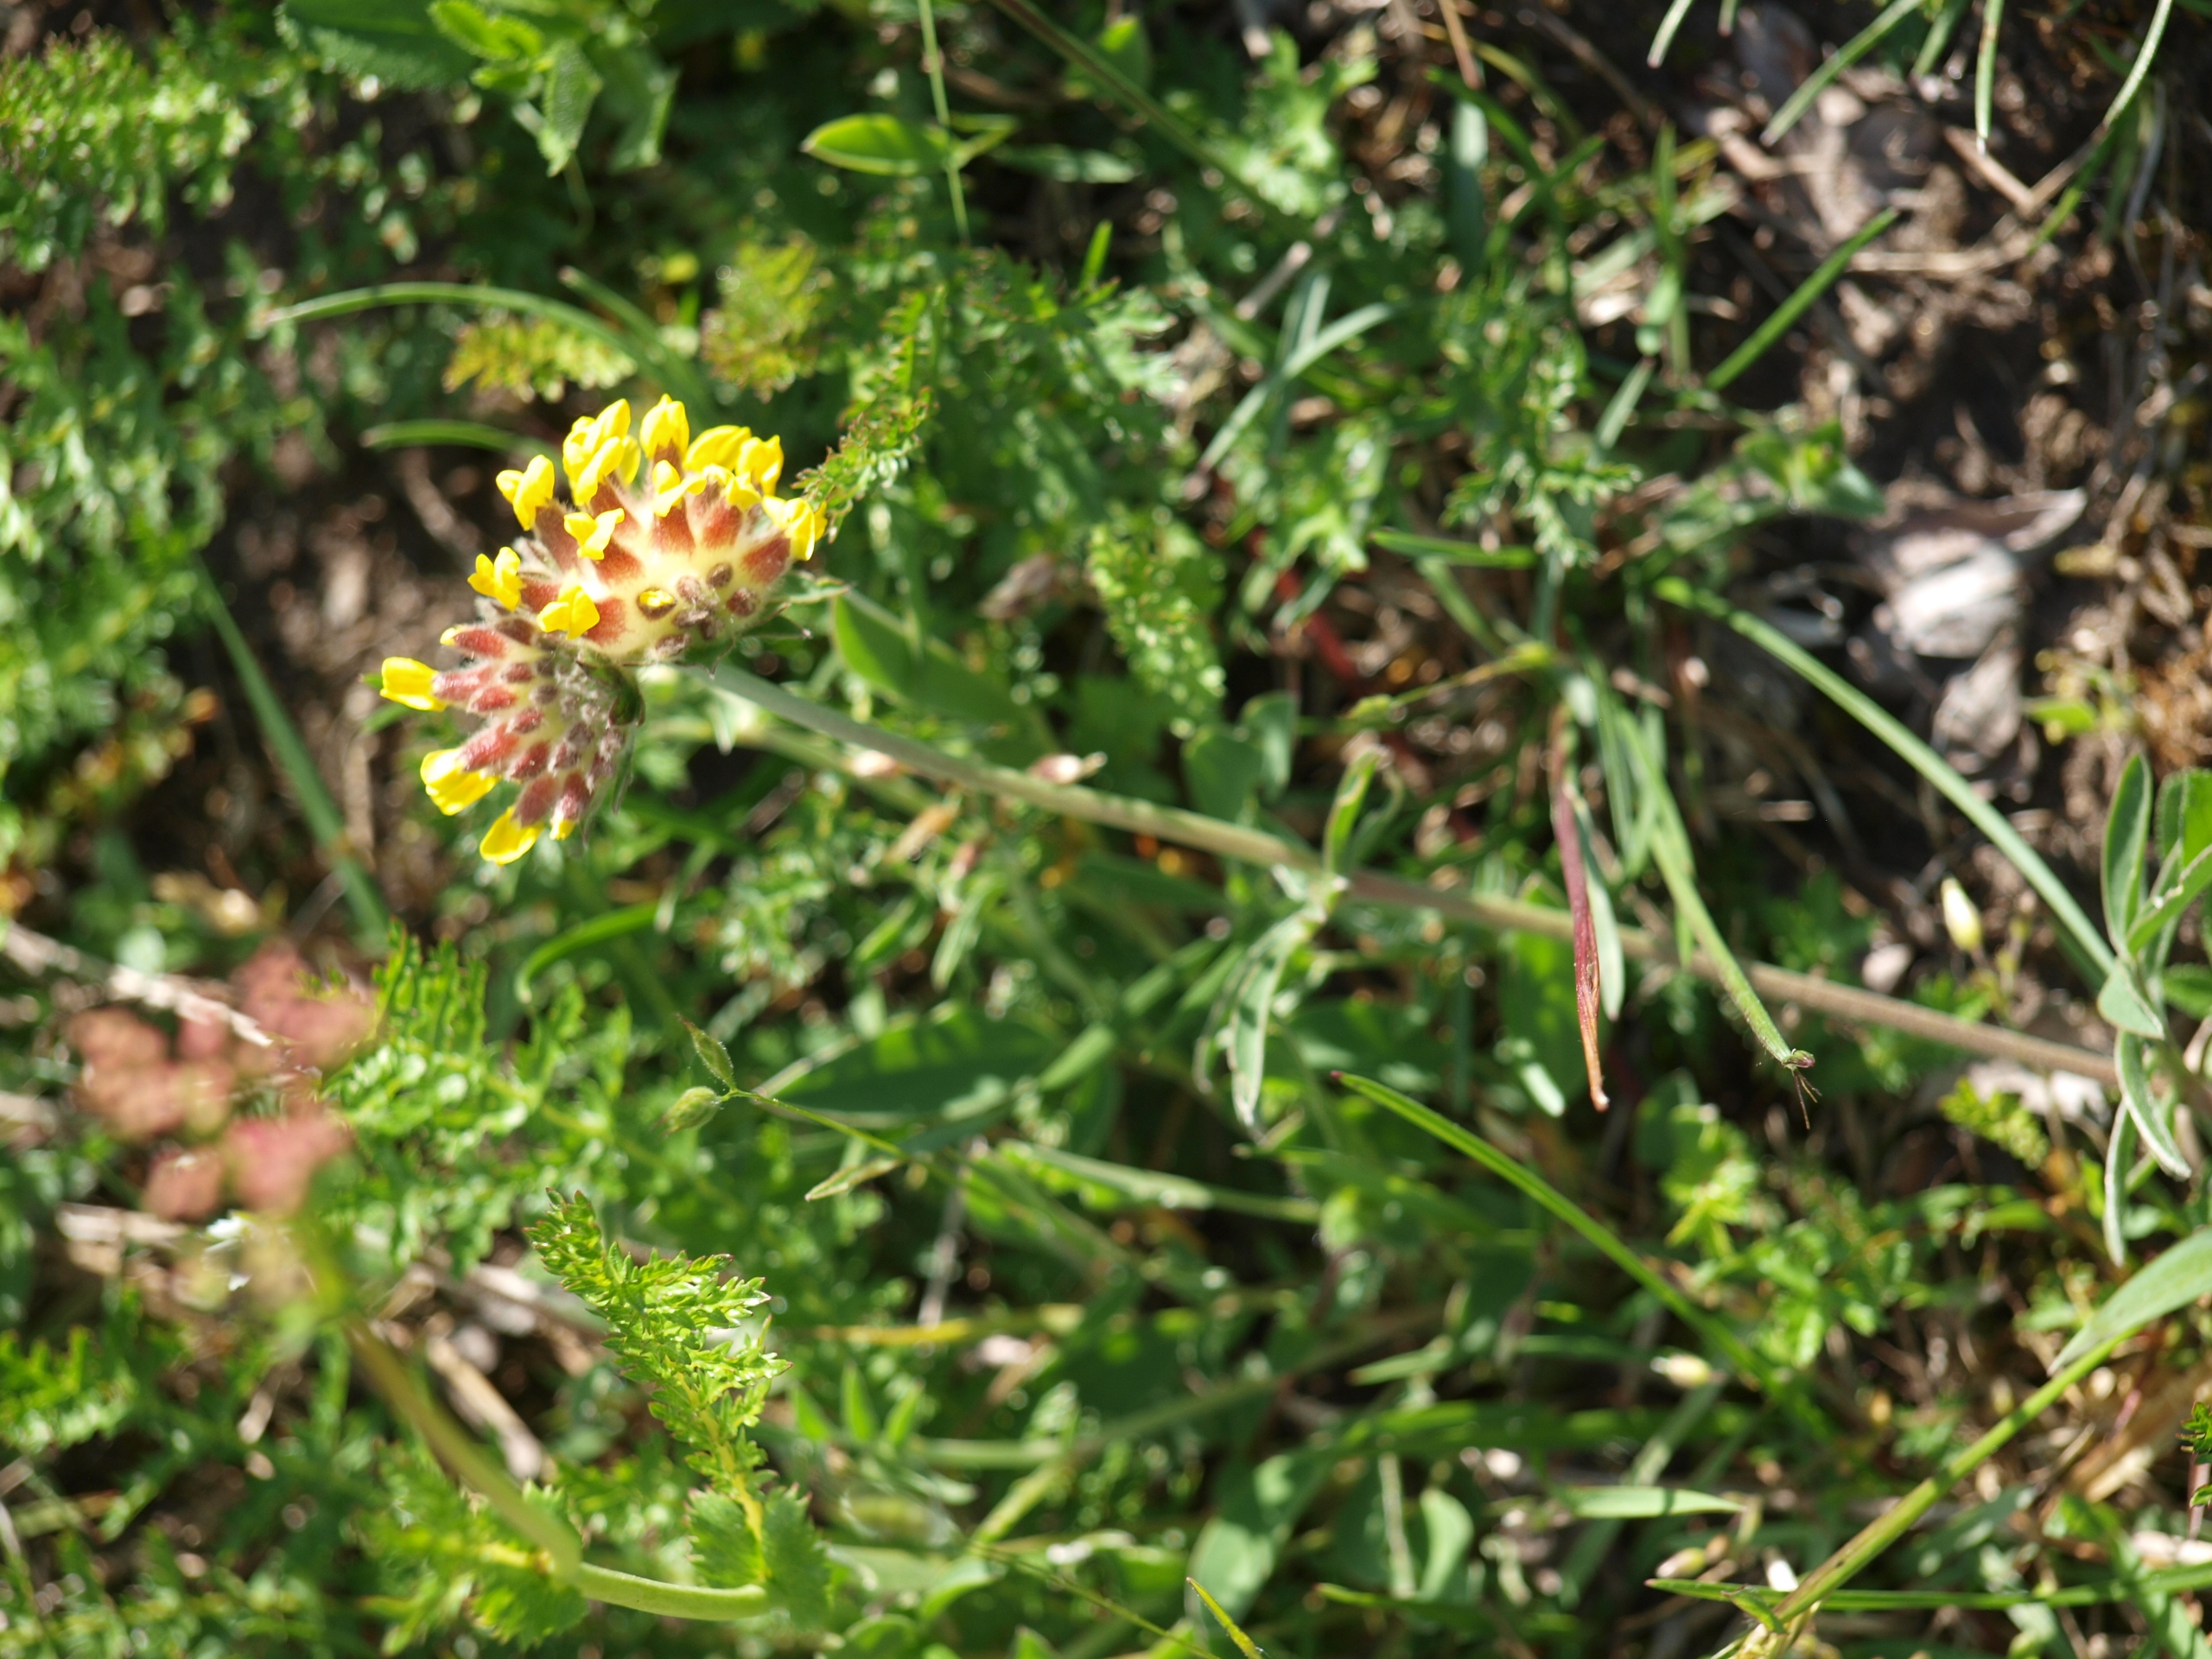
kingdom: Plantae
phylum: Tracheophyta
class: Magnoliopsida
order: Fabales
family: Fabaceae
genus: Anthyllis
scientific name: Anthyllis vulneraria
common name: Rundbælg
